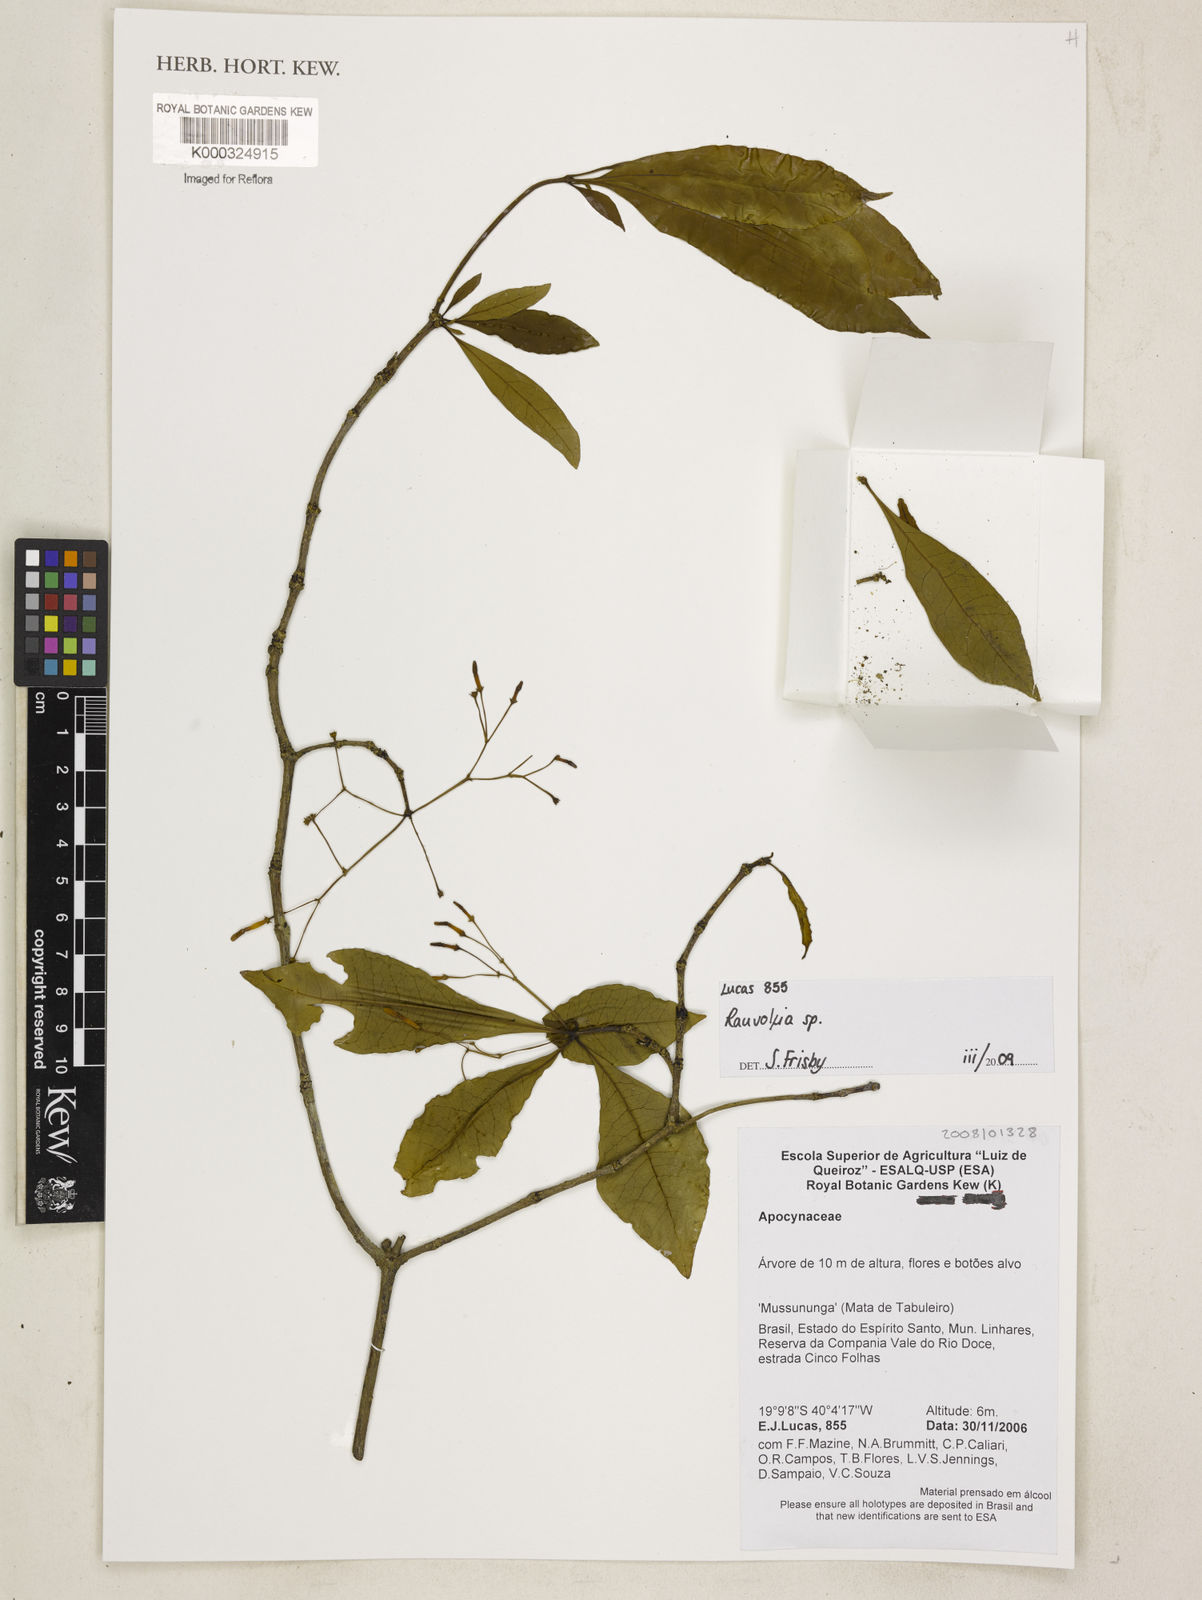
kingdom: Plantae
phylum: Tracheophyta
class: Magnoliopsida
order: Gentianales
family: Apocynaceae
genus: Rauvolfia
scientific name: Rauvolfia
